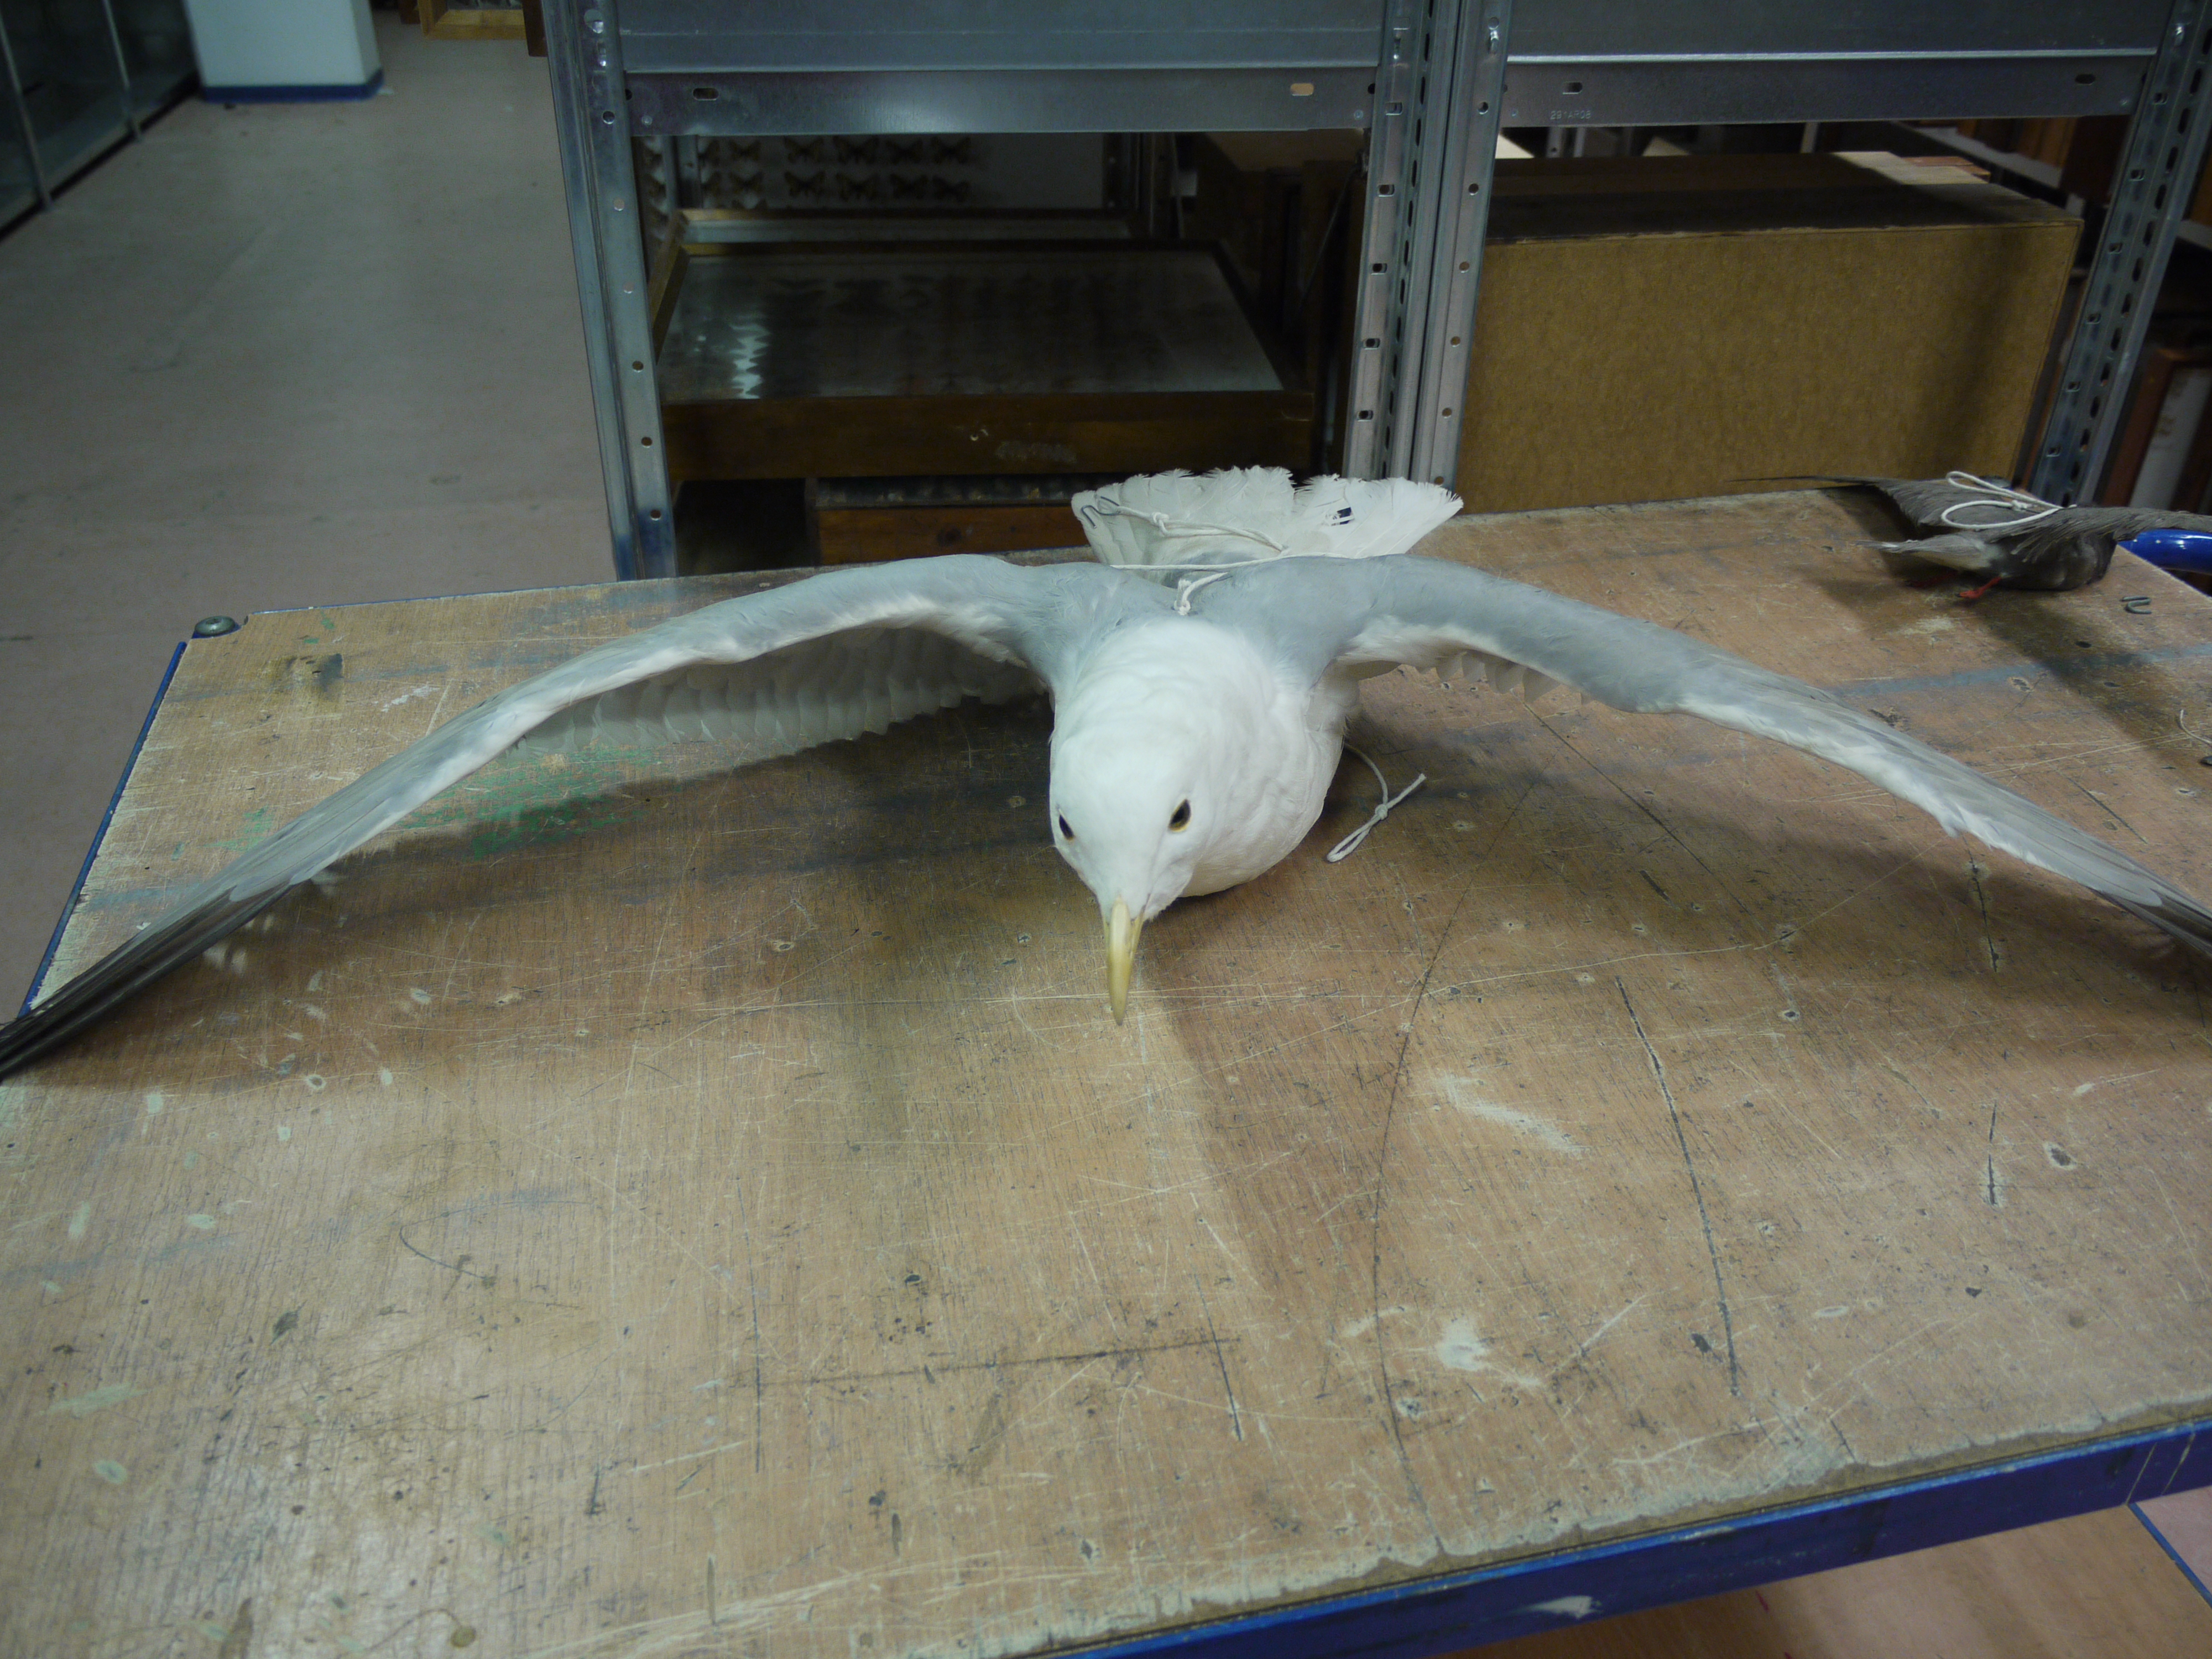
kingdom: Animalia
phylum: Chordata
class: Aves
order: Charadriiformes
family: Laridae
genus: Larus
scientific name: Larus argentatus
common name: Herring gull
